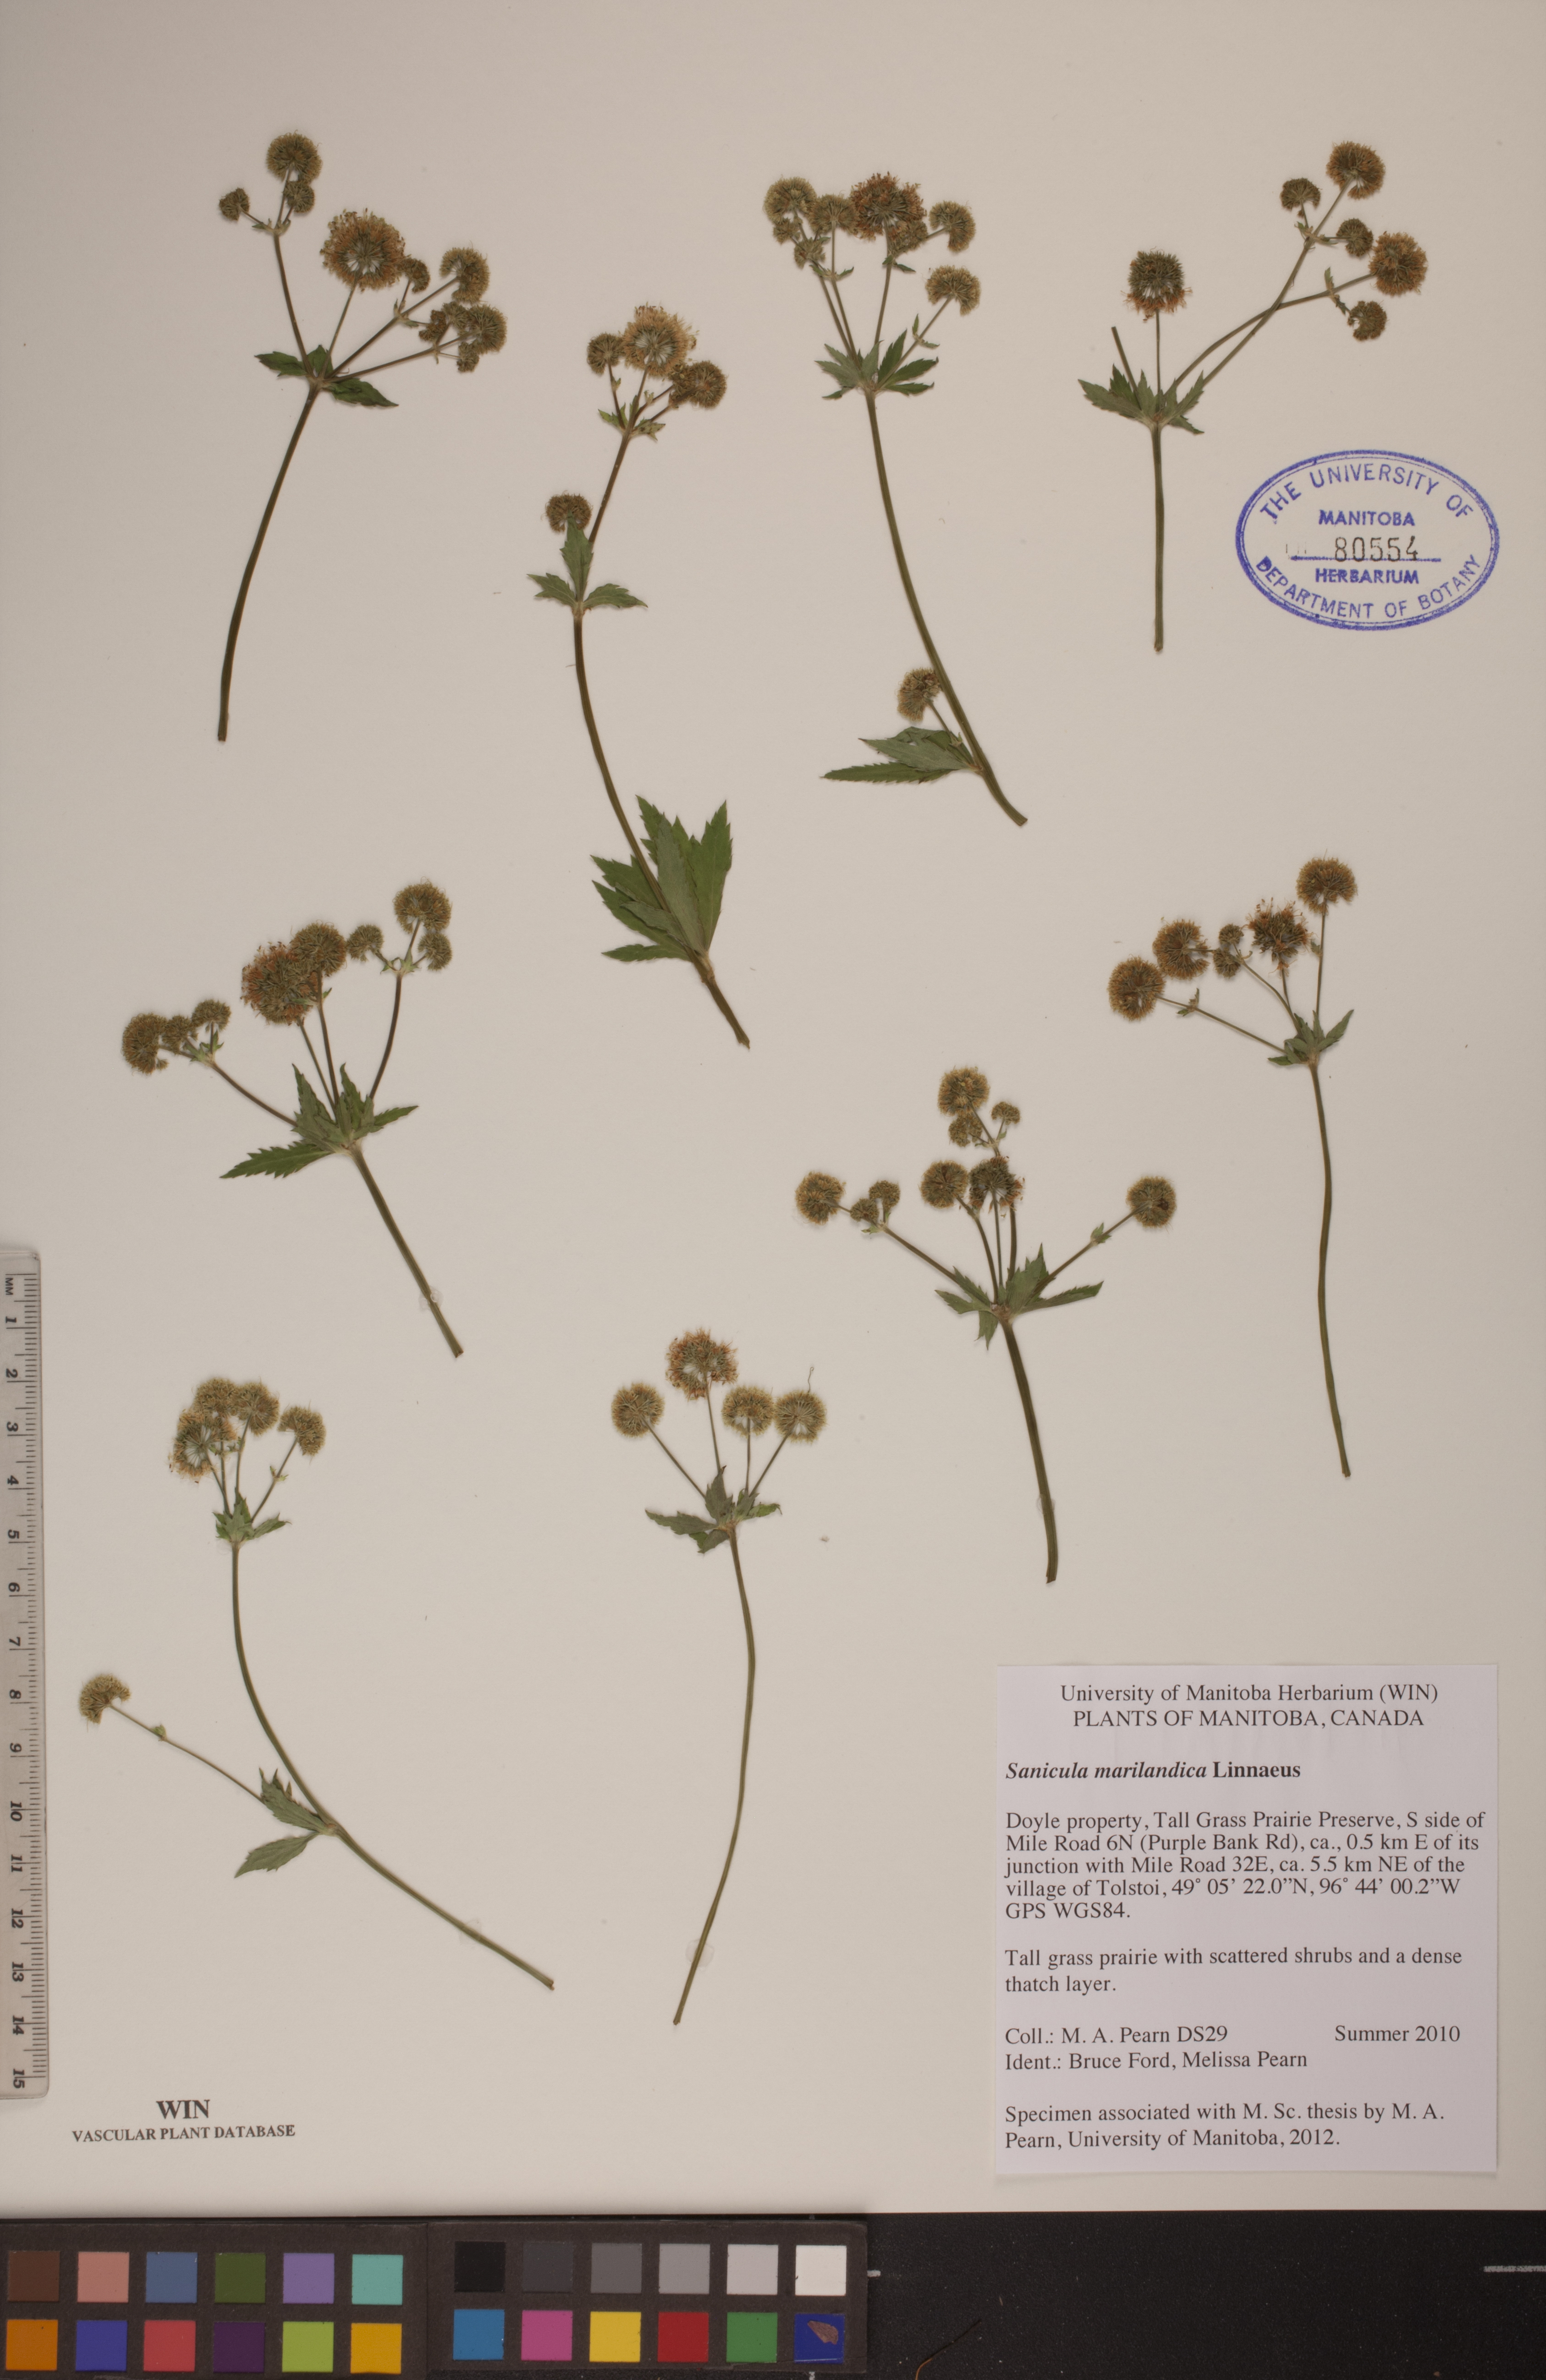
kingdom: Plantae
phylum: Tracheophyta
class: Magnoliopsida
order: Apiales
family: Apiaceae
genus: Sanicula
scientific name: Sanicula marilandica
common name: Black snakeroot
